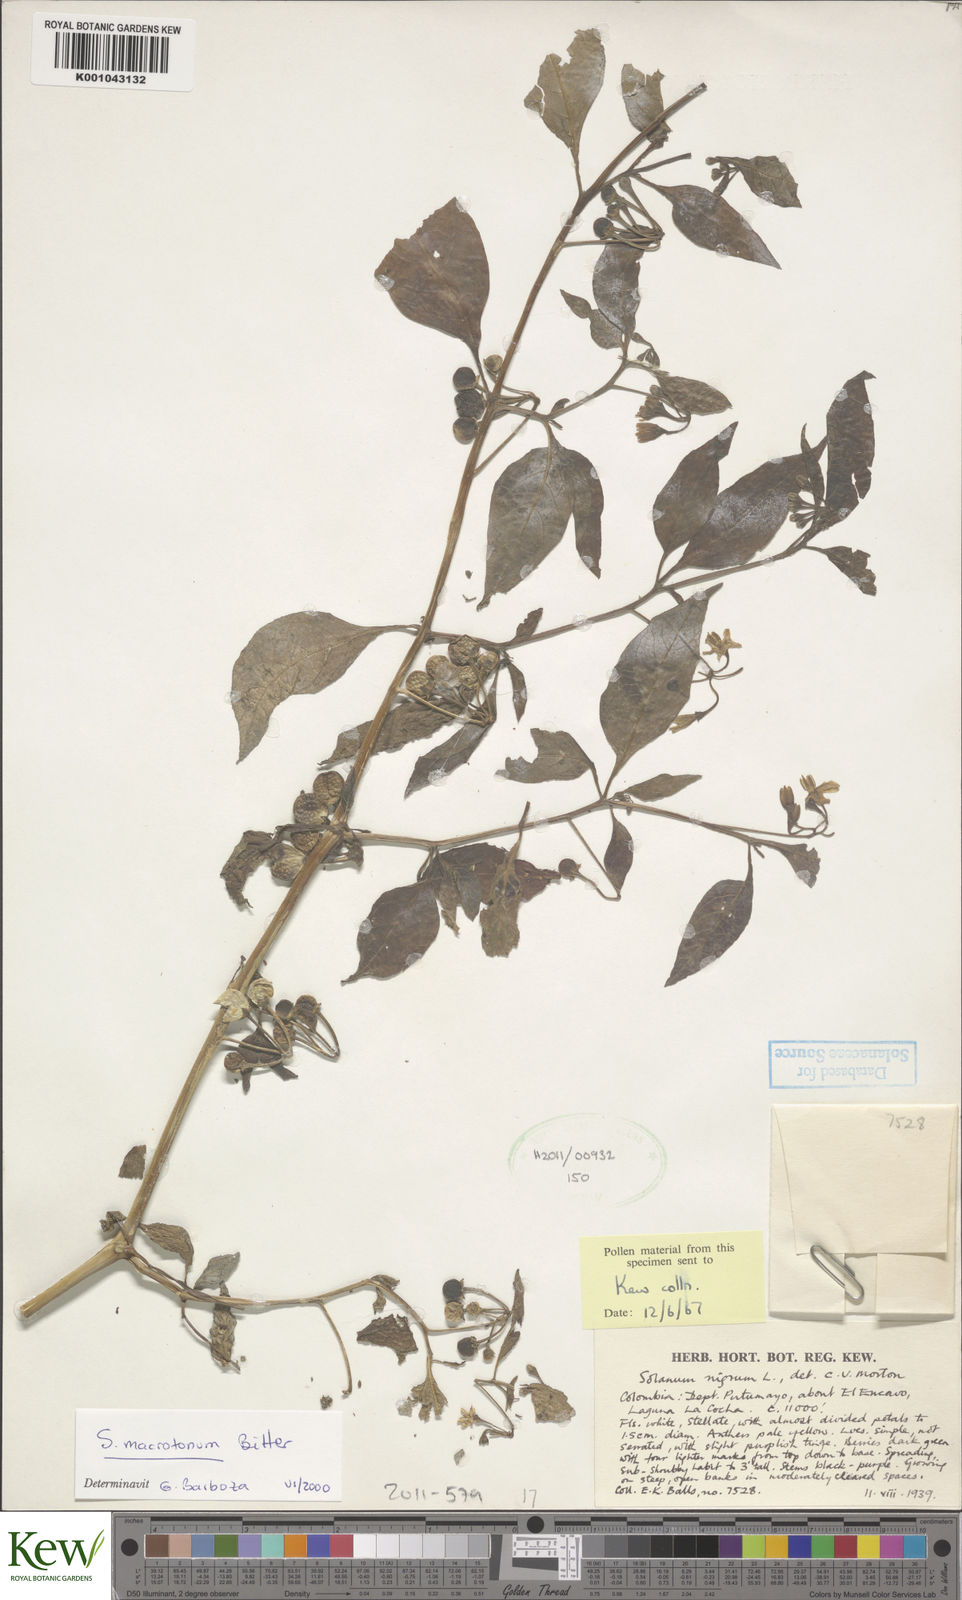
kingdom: Plantae
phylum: Tracheophyta
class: Magnoliopsida
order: Solanales
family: Solanaceae
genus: Solanum
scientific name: Solanum macrotonum
